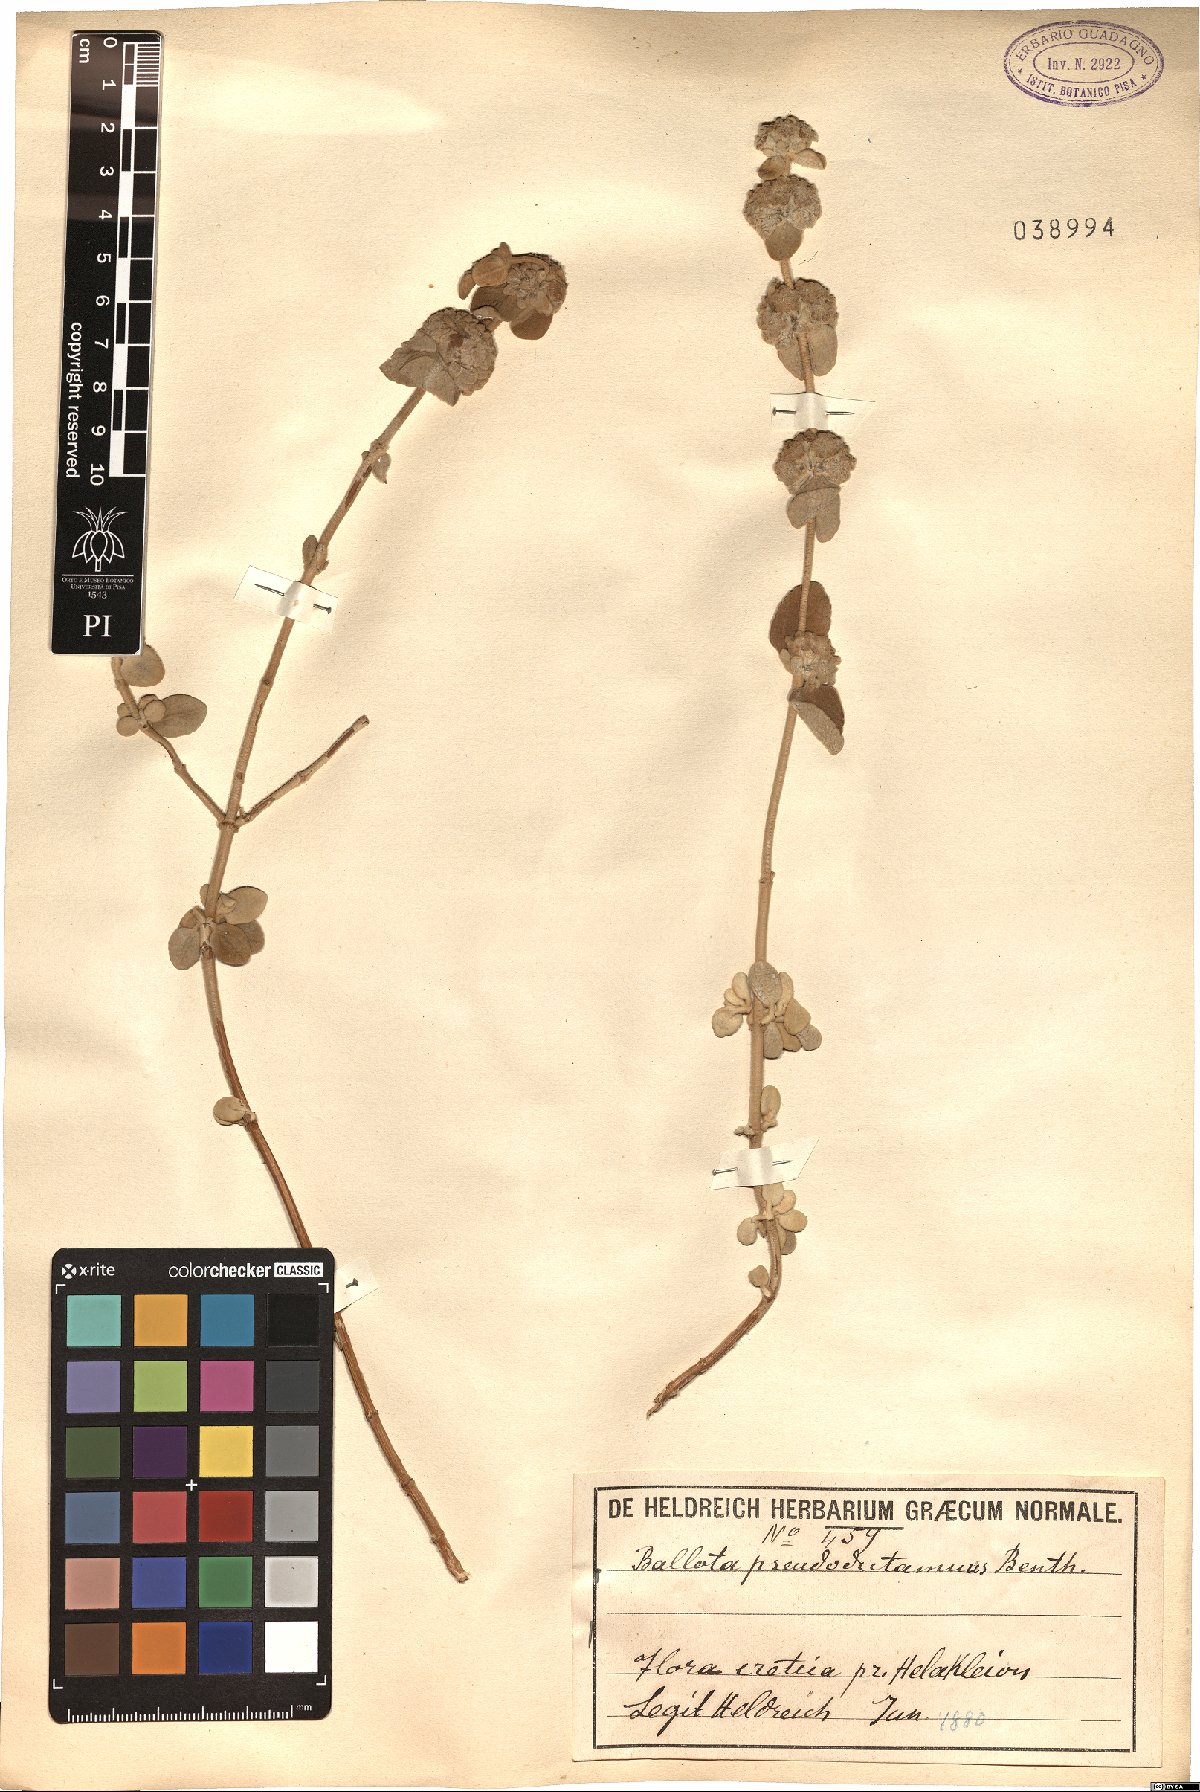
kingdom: Plantae
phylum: Tracheophyta
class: Magnoliopsida
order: Lamiales
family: Lamiaceae
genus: Pseudodictamnus
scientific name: Pseudodictamnus mediterraneus
